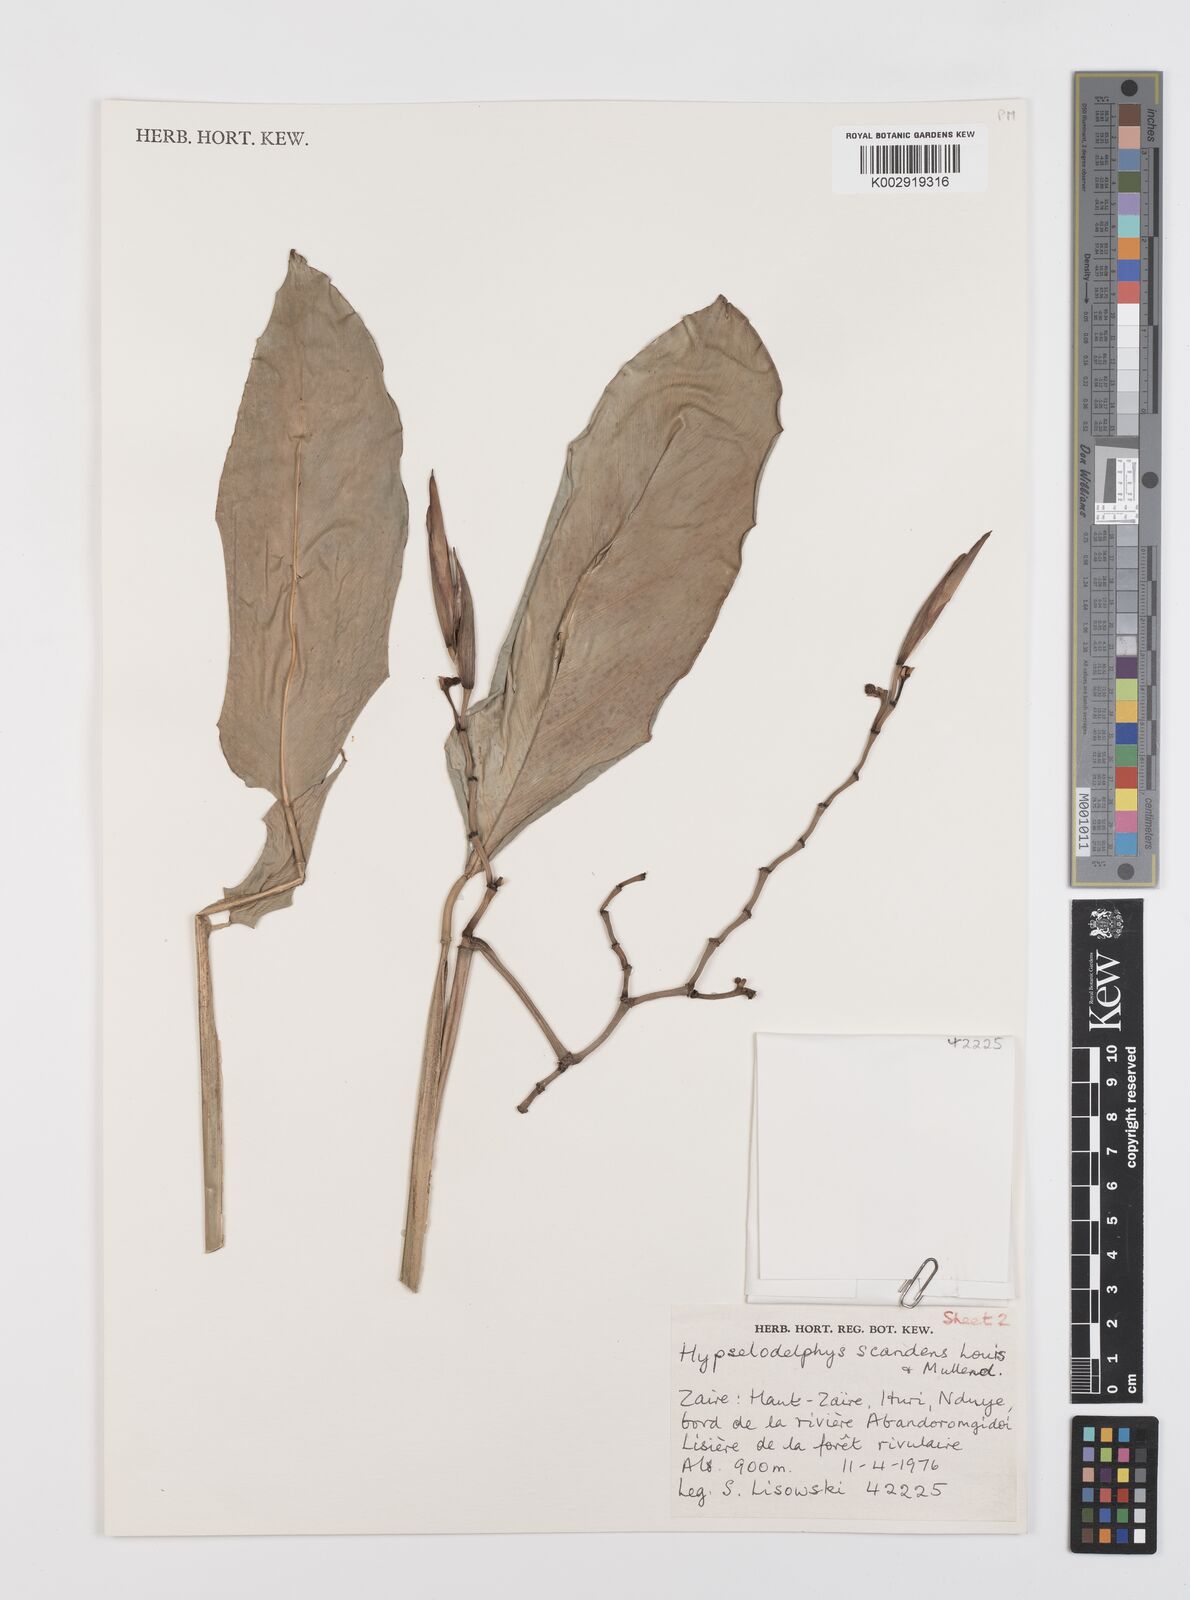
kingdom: Plantae
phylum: Tracheophyta
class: Liliopsida
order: Zingiberales
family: Marantaceae
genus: Hypselodelphys
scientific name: Hypselodelphys scandens
